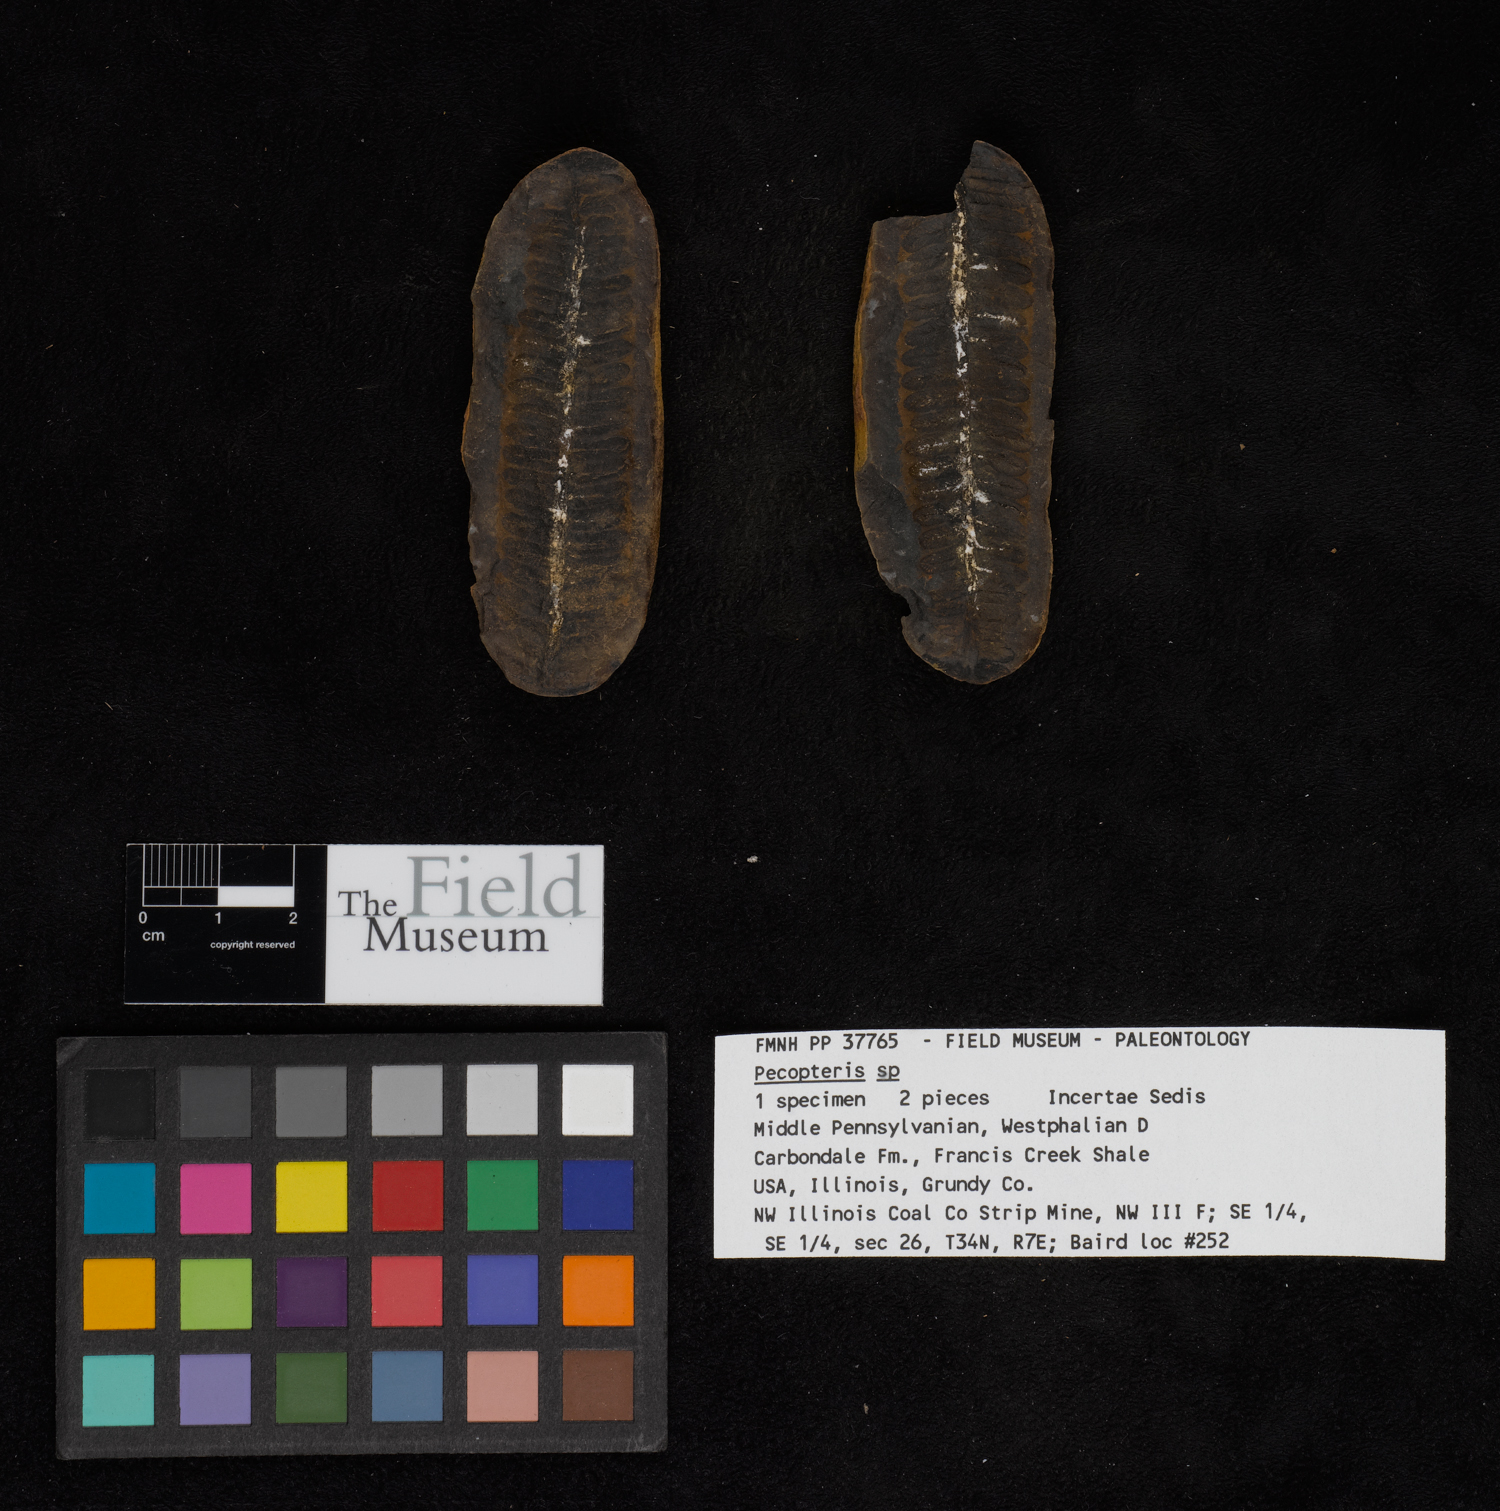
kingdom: Plantae
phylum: Tracheophyta
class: Polypodiopsida
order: Marattiales
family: Asterothecaceae
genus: Pecopteris
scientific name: Pecopteris
